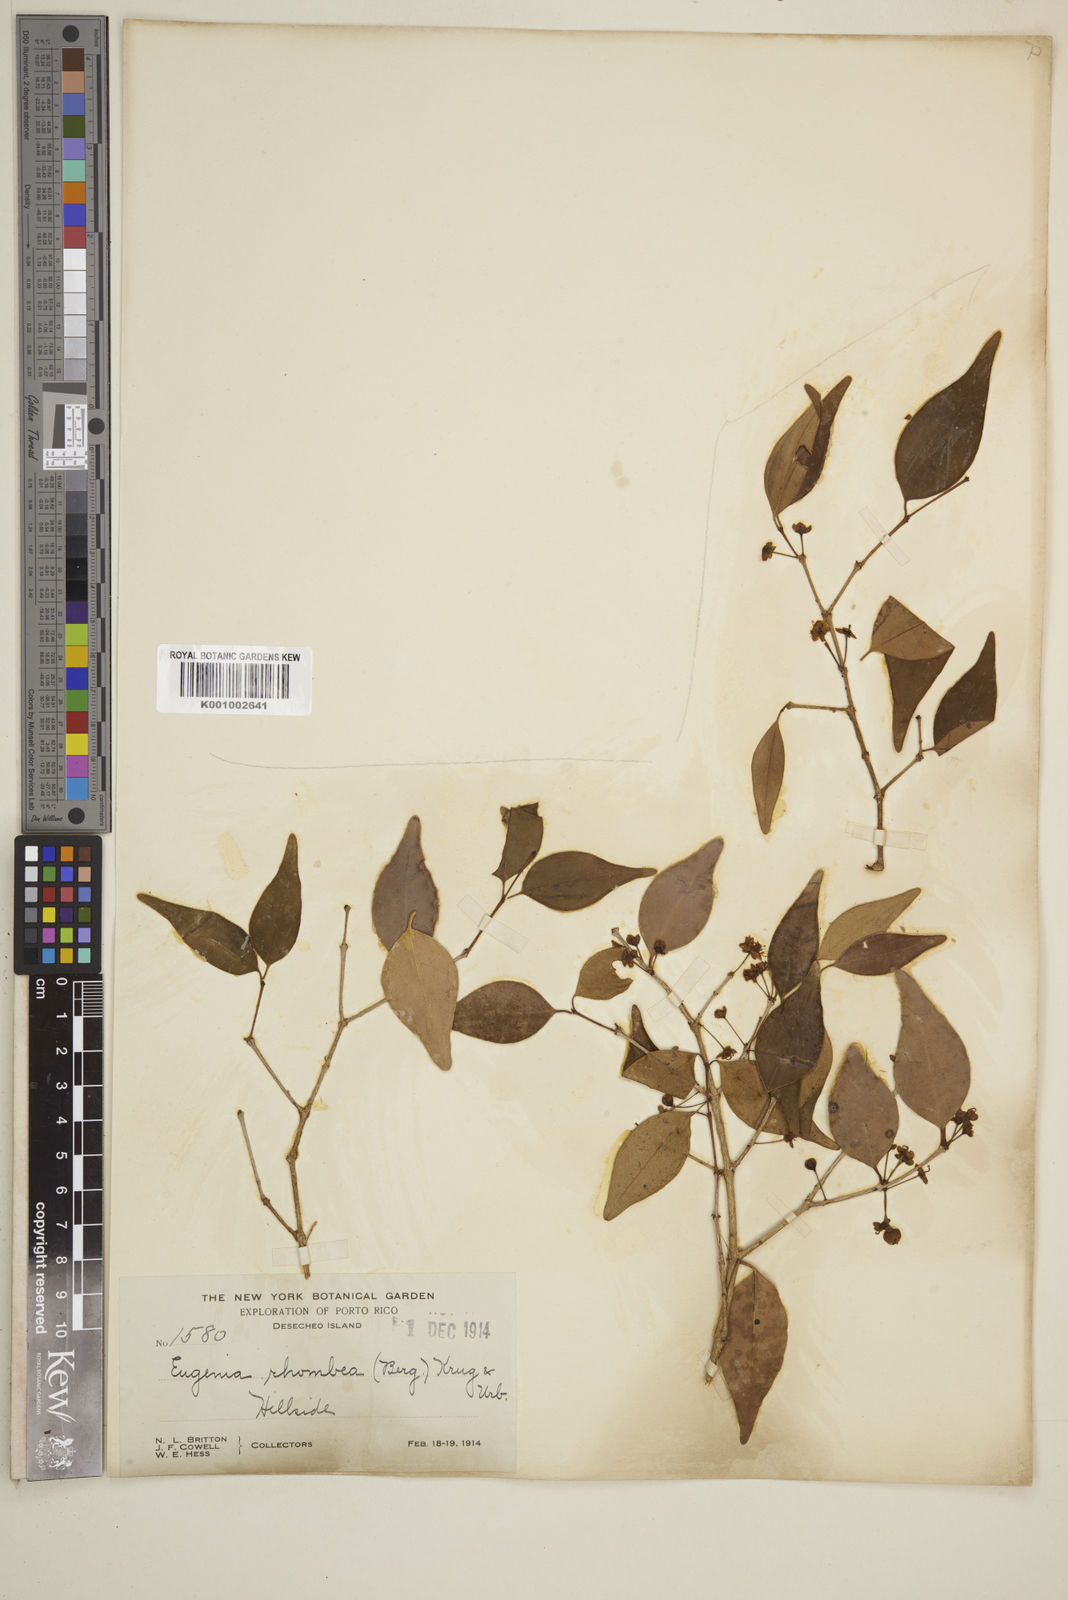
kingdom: Plantae
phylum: Tracheophyta
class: Magnoliopsida
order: Myrtales
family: Myrtaceae
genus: Eugenia
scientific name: Eugenia rhombea
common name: Pigeon berry
